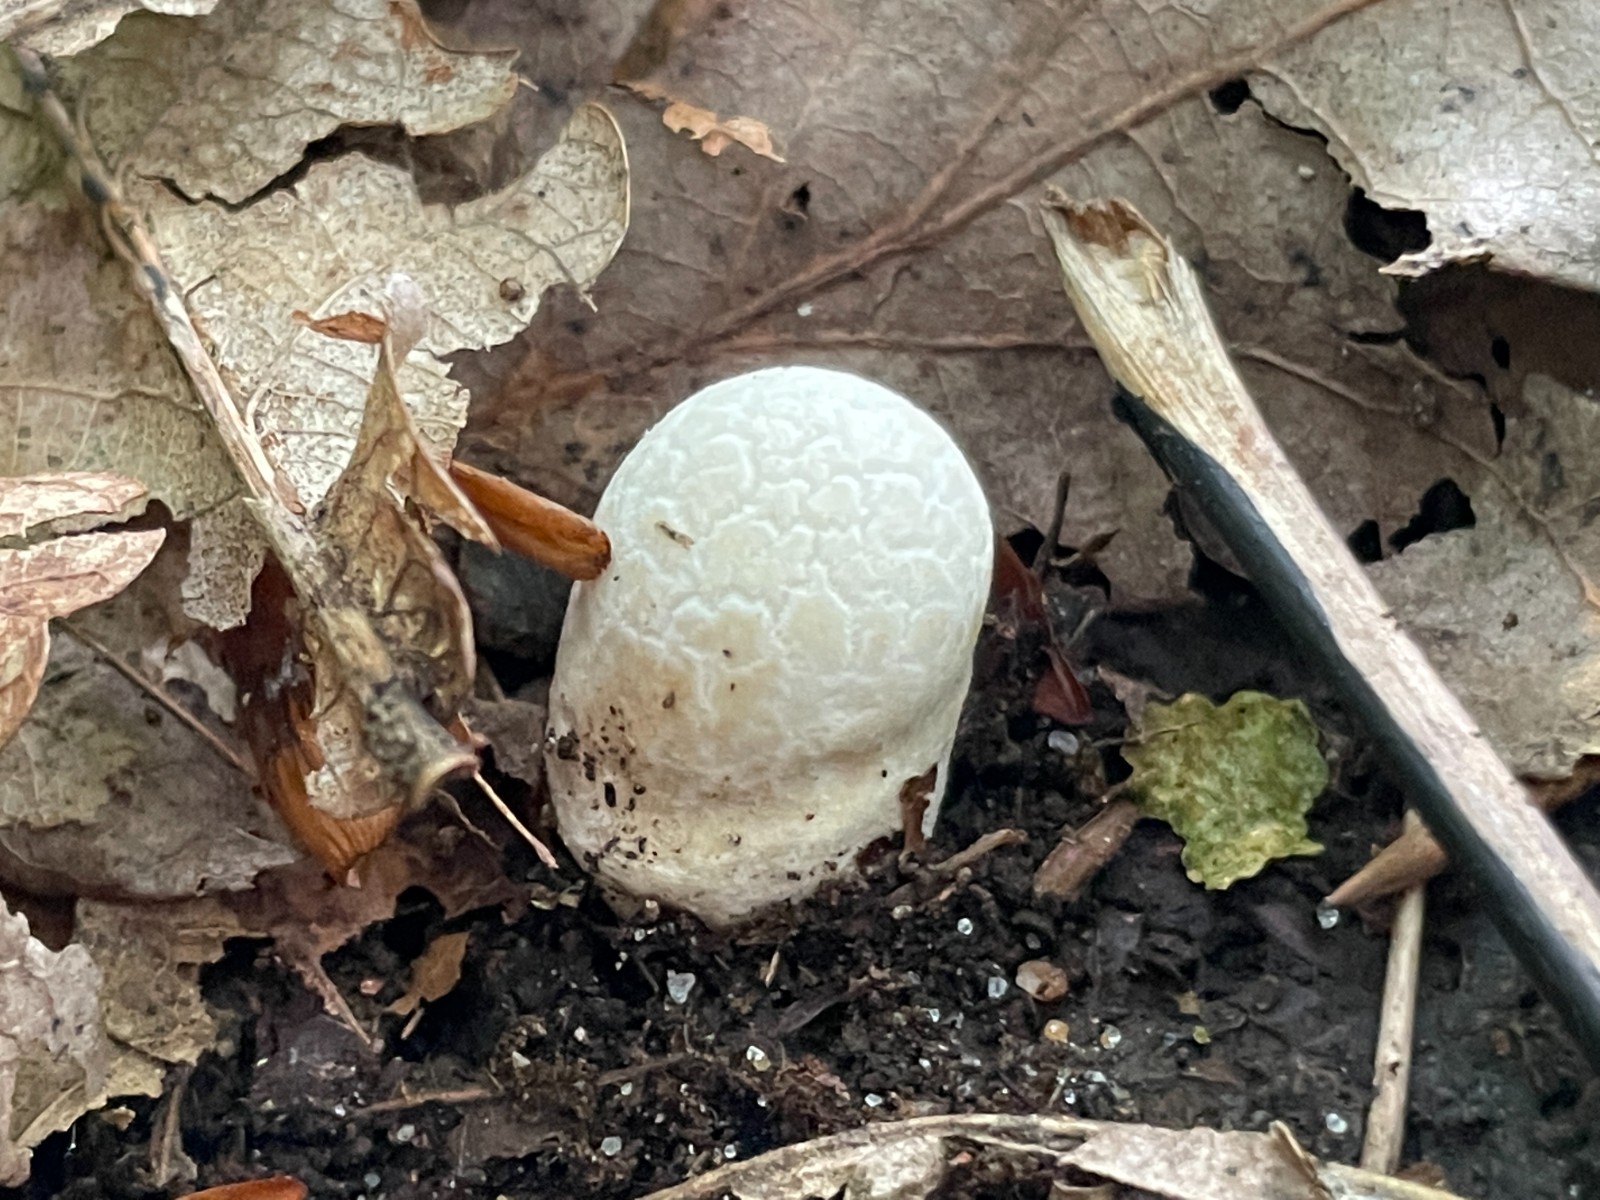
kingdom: Fungi
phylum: Basidiomycota
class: Agaricomycetes
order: Agaricales
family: Lycoperdaceae
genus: Lycoperdon
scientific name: Lycoperdon mammiforme
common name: rosa støvbold
